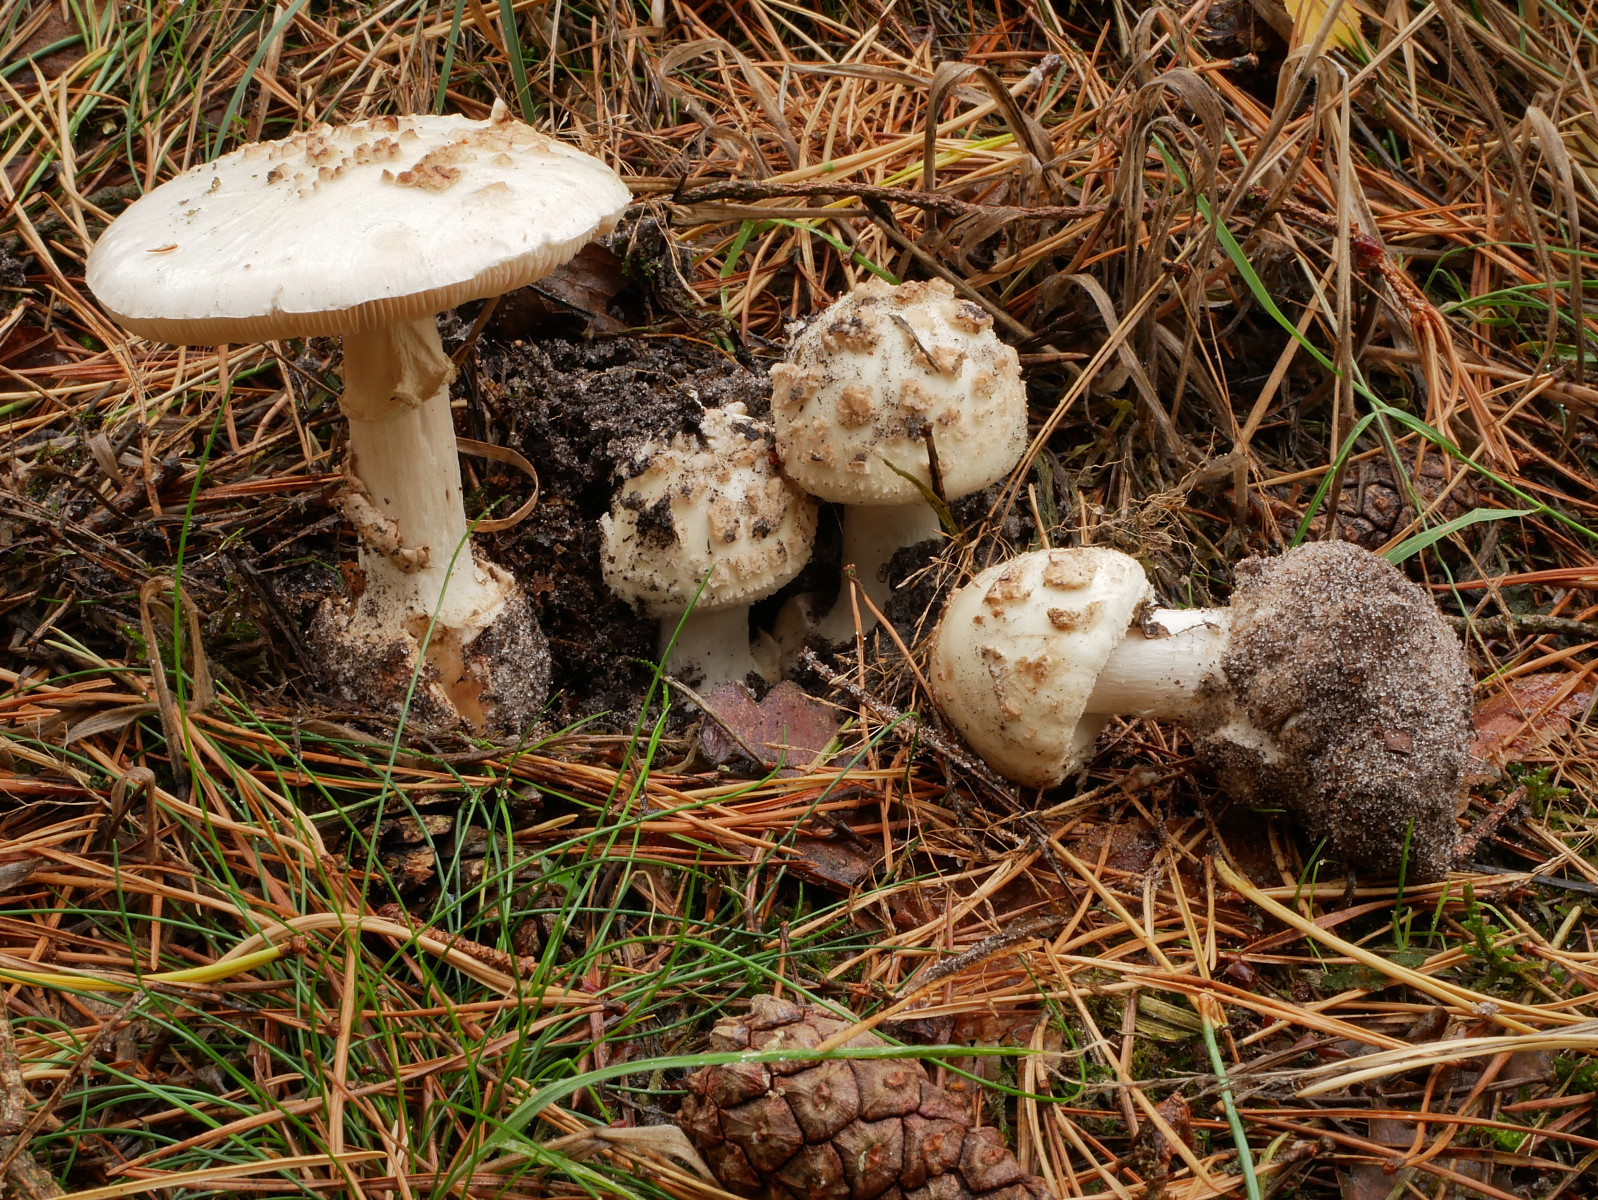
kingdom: Fungi
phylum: Basidiomycota
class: Agaricomycetes
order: Agaricales
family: Amanitaceae
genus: Amanita
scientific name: Amanita citrina
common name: kugleknoldet fluesvamp
